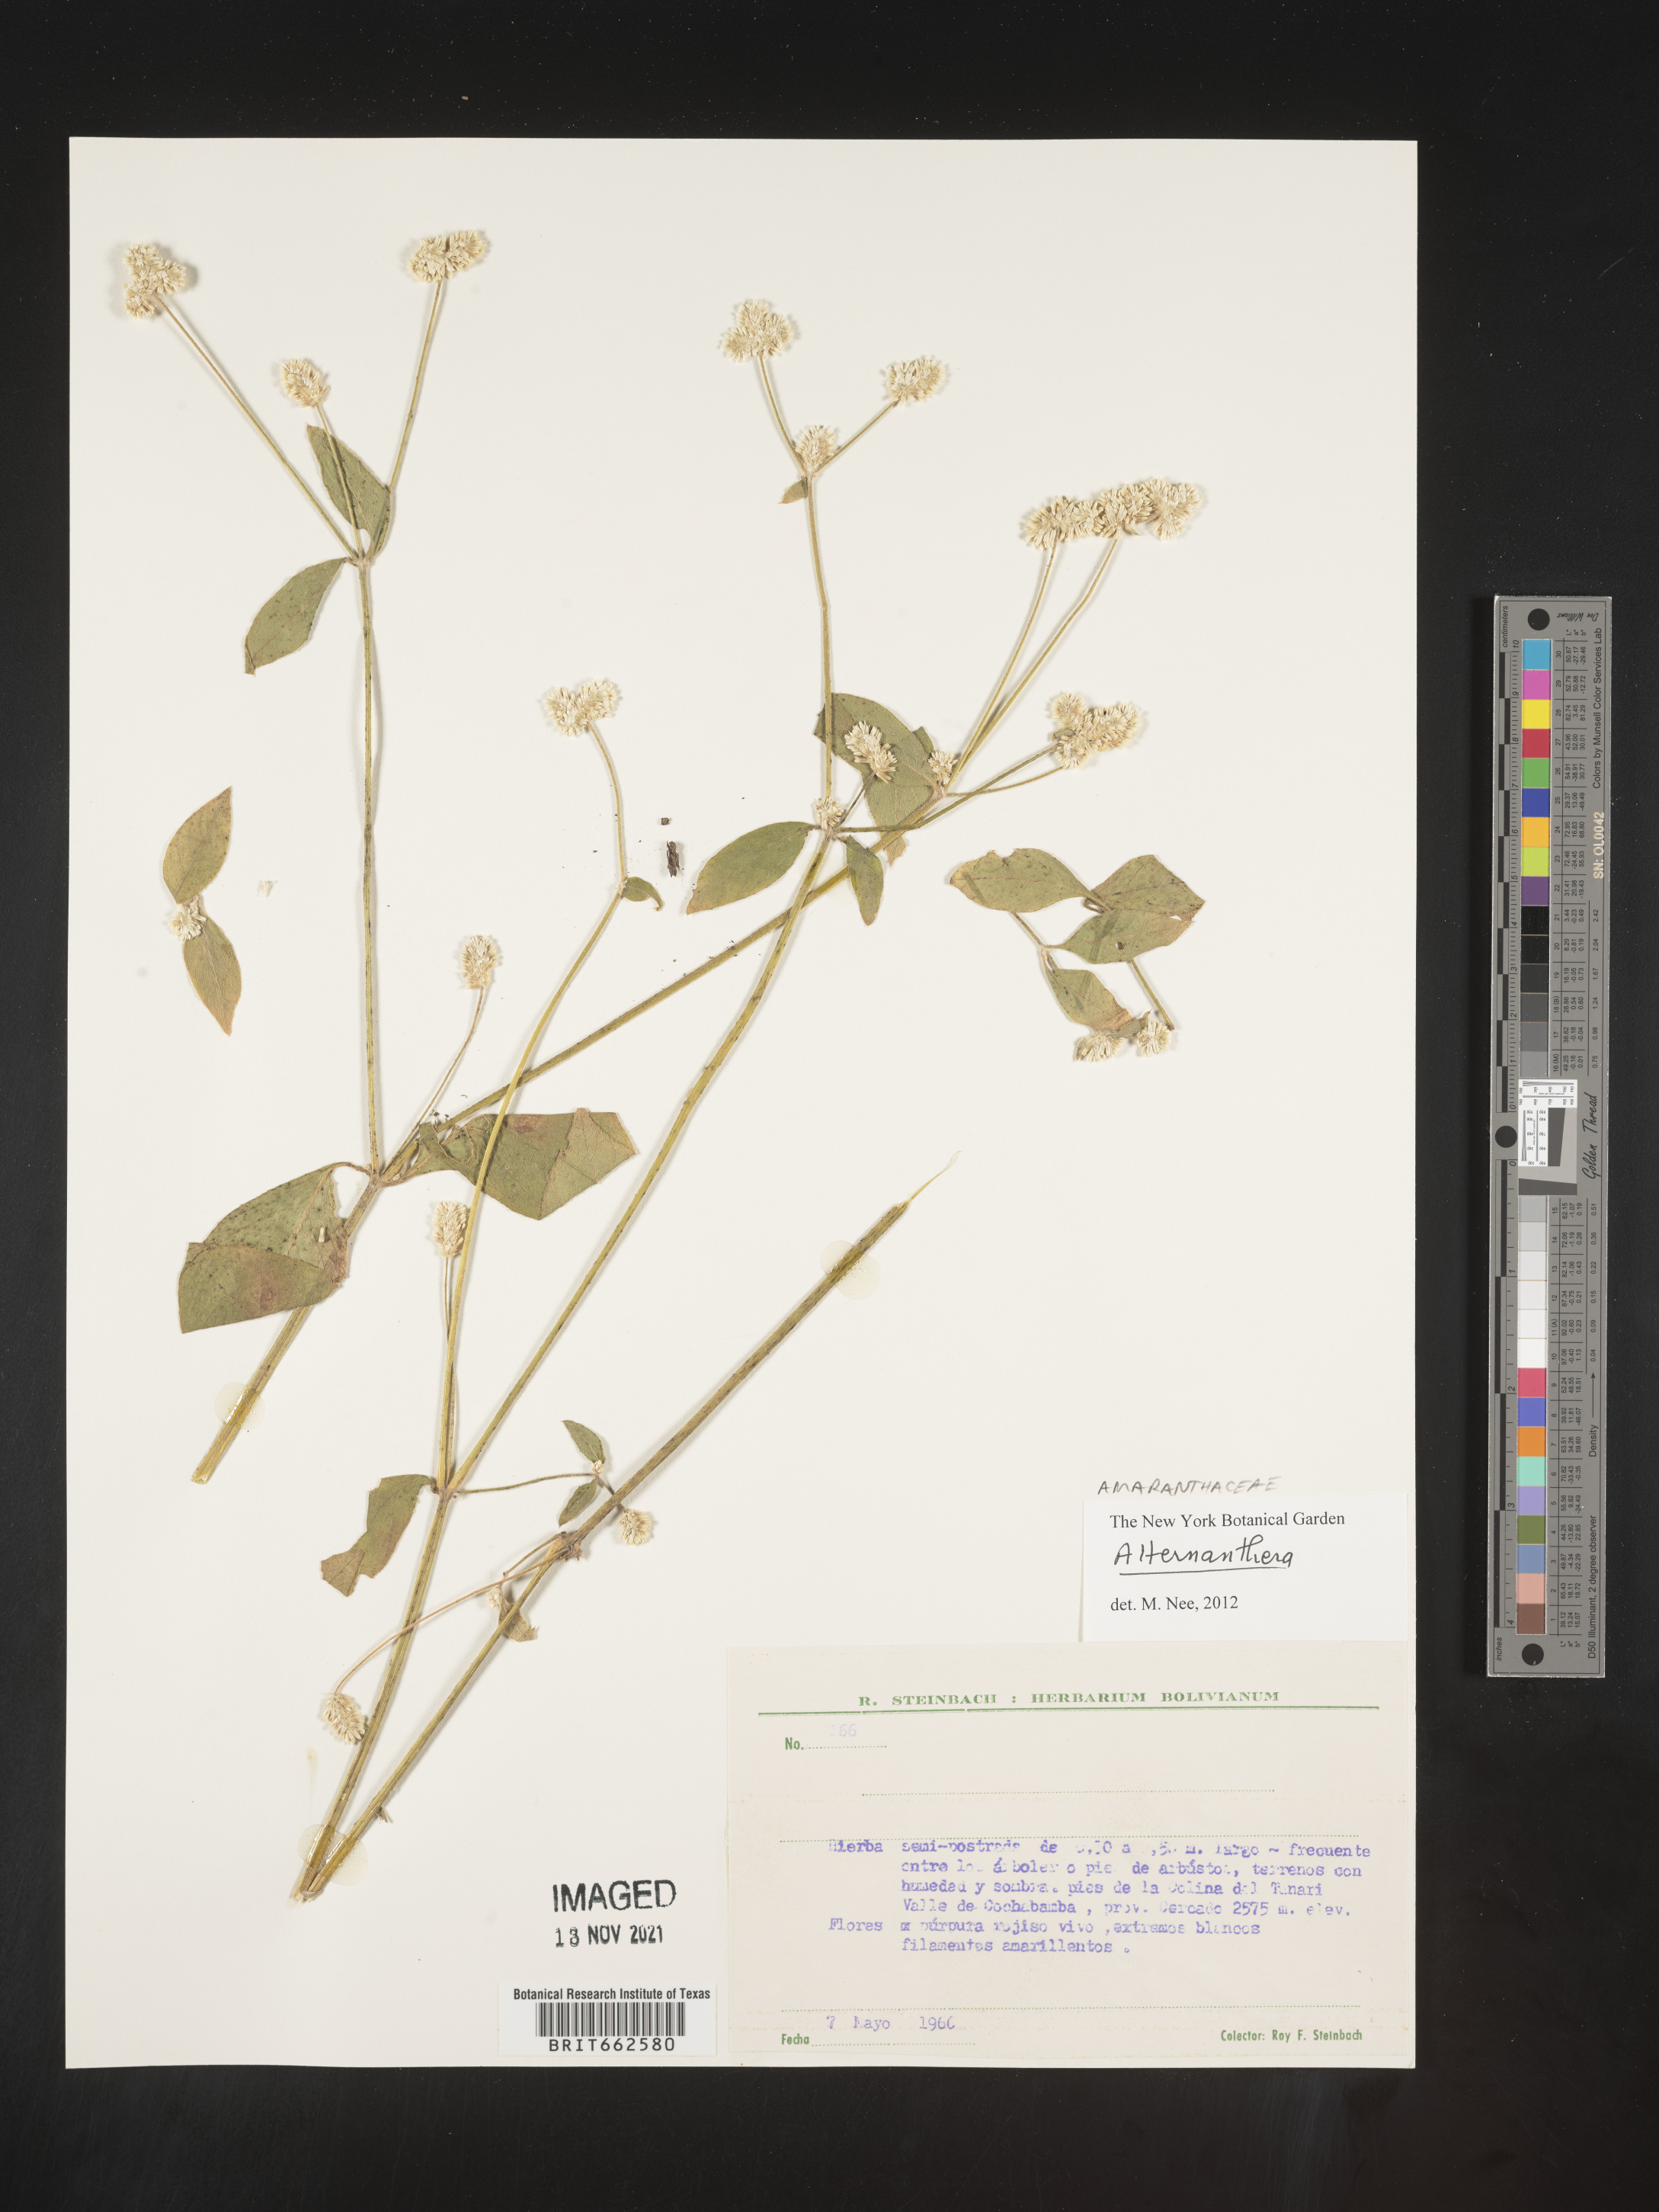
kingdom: Plantae
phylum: Tracheophyta
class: Magnoliopsida
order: Caryophyllales
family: Amaranthaceae
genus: Alternanthera
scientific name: Alternanthera
